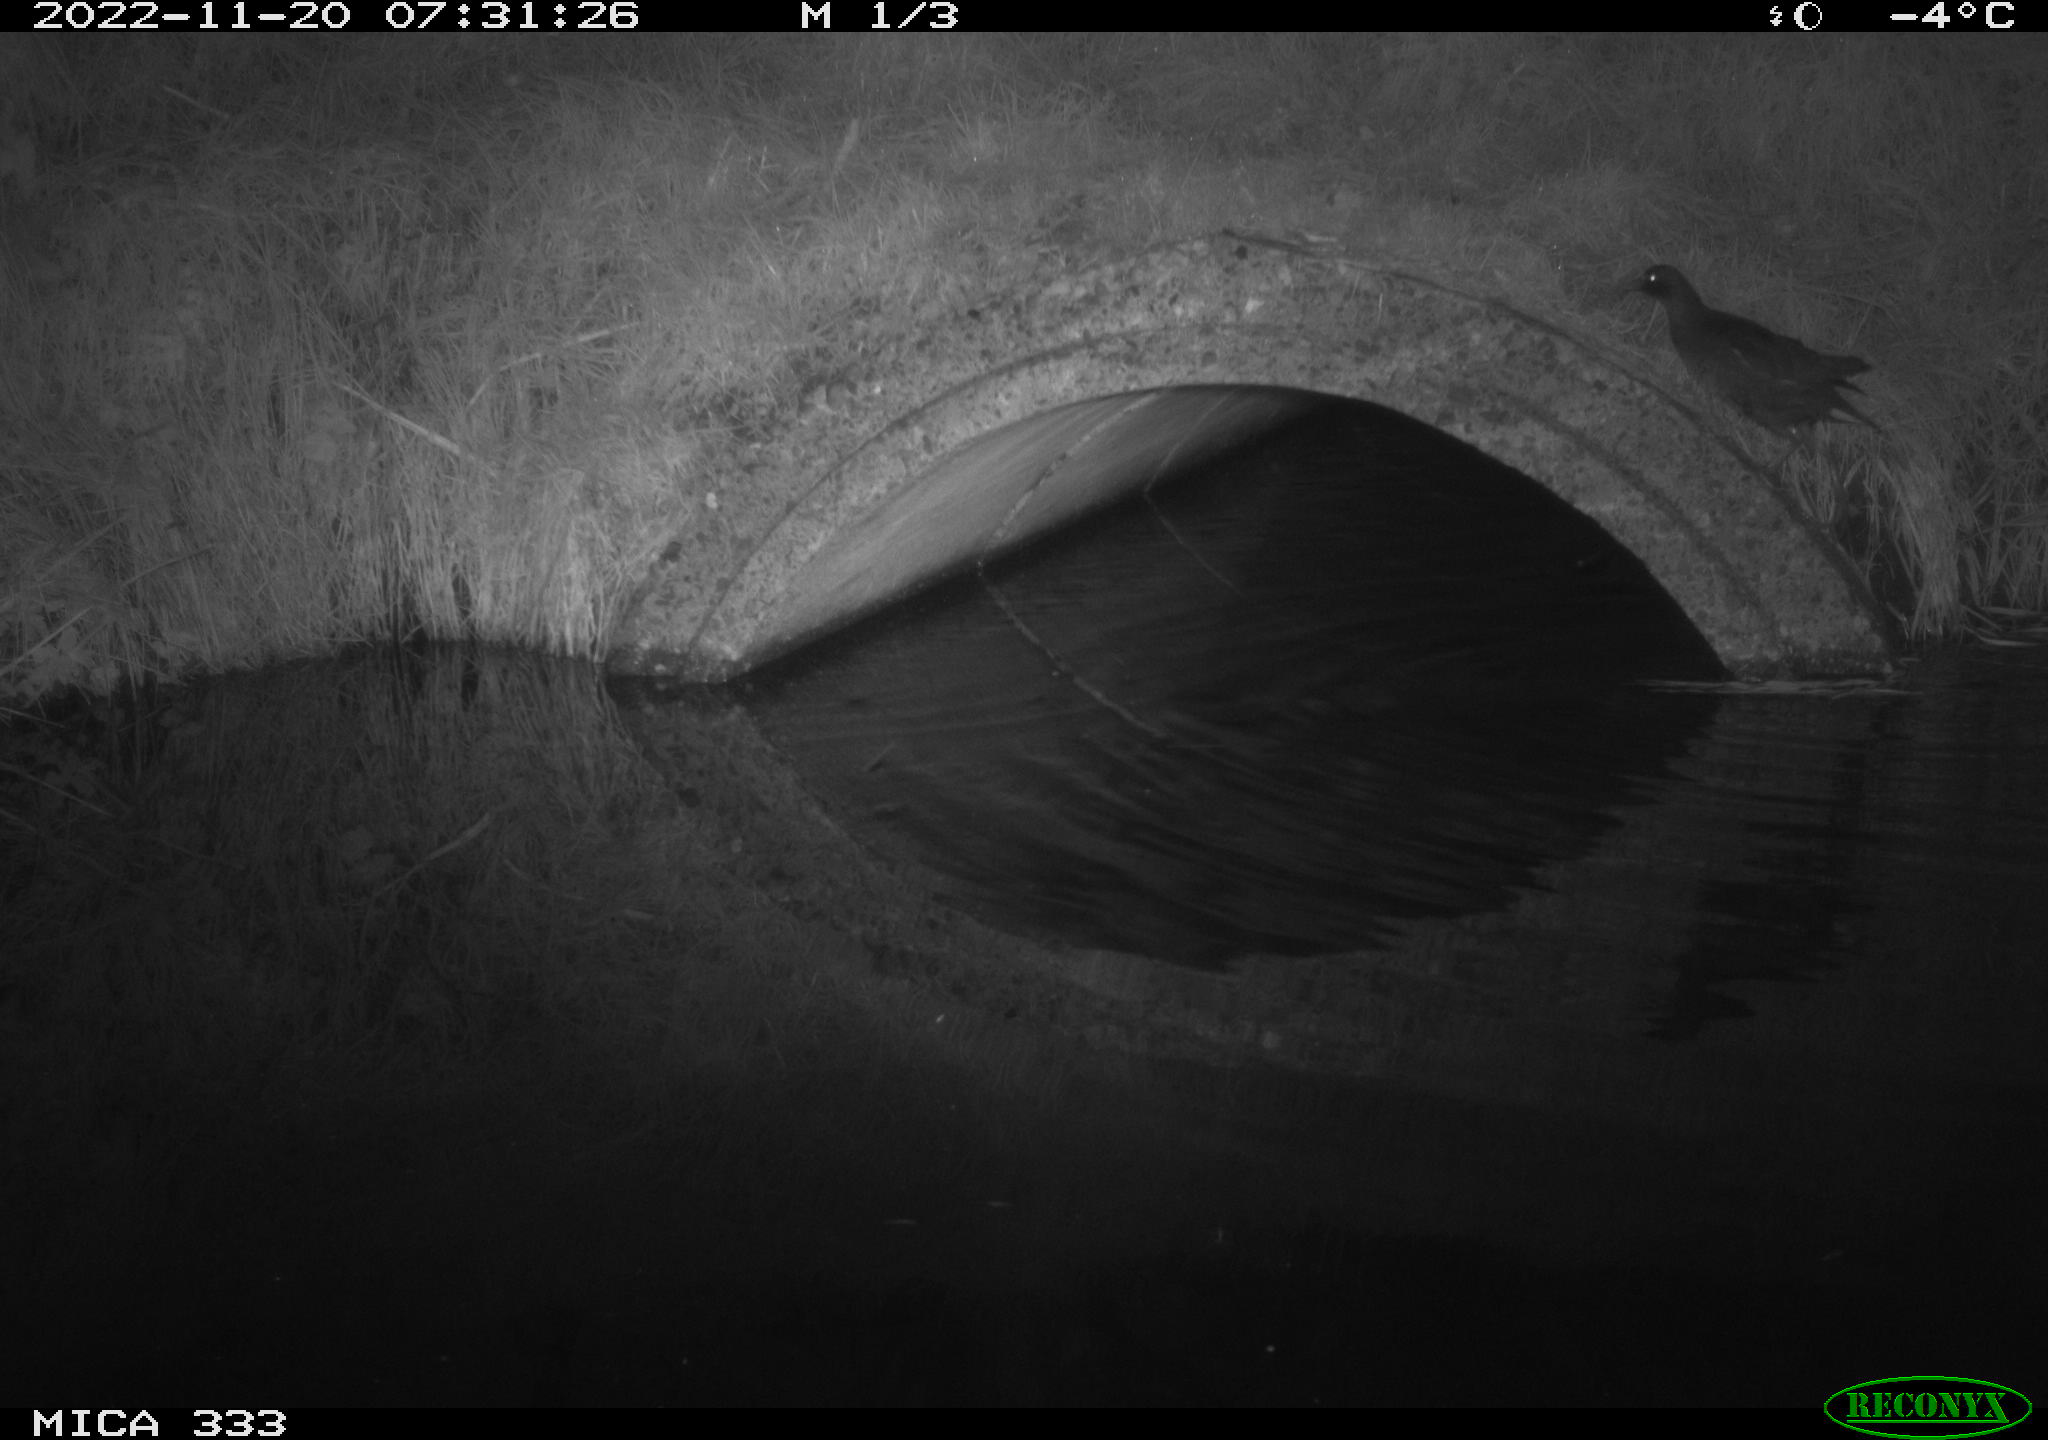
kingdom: Animalia
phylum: Chordata
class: Aves
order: Gruiformes
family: Rallidae
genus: Gallinula
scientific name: Gallinula chloropus
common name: Common moorhen
